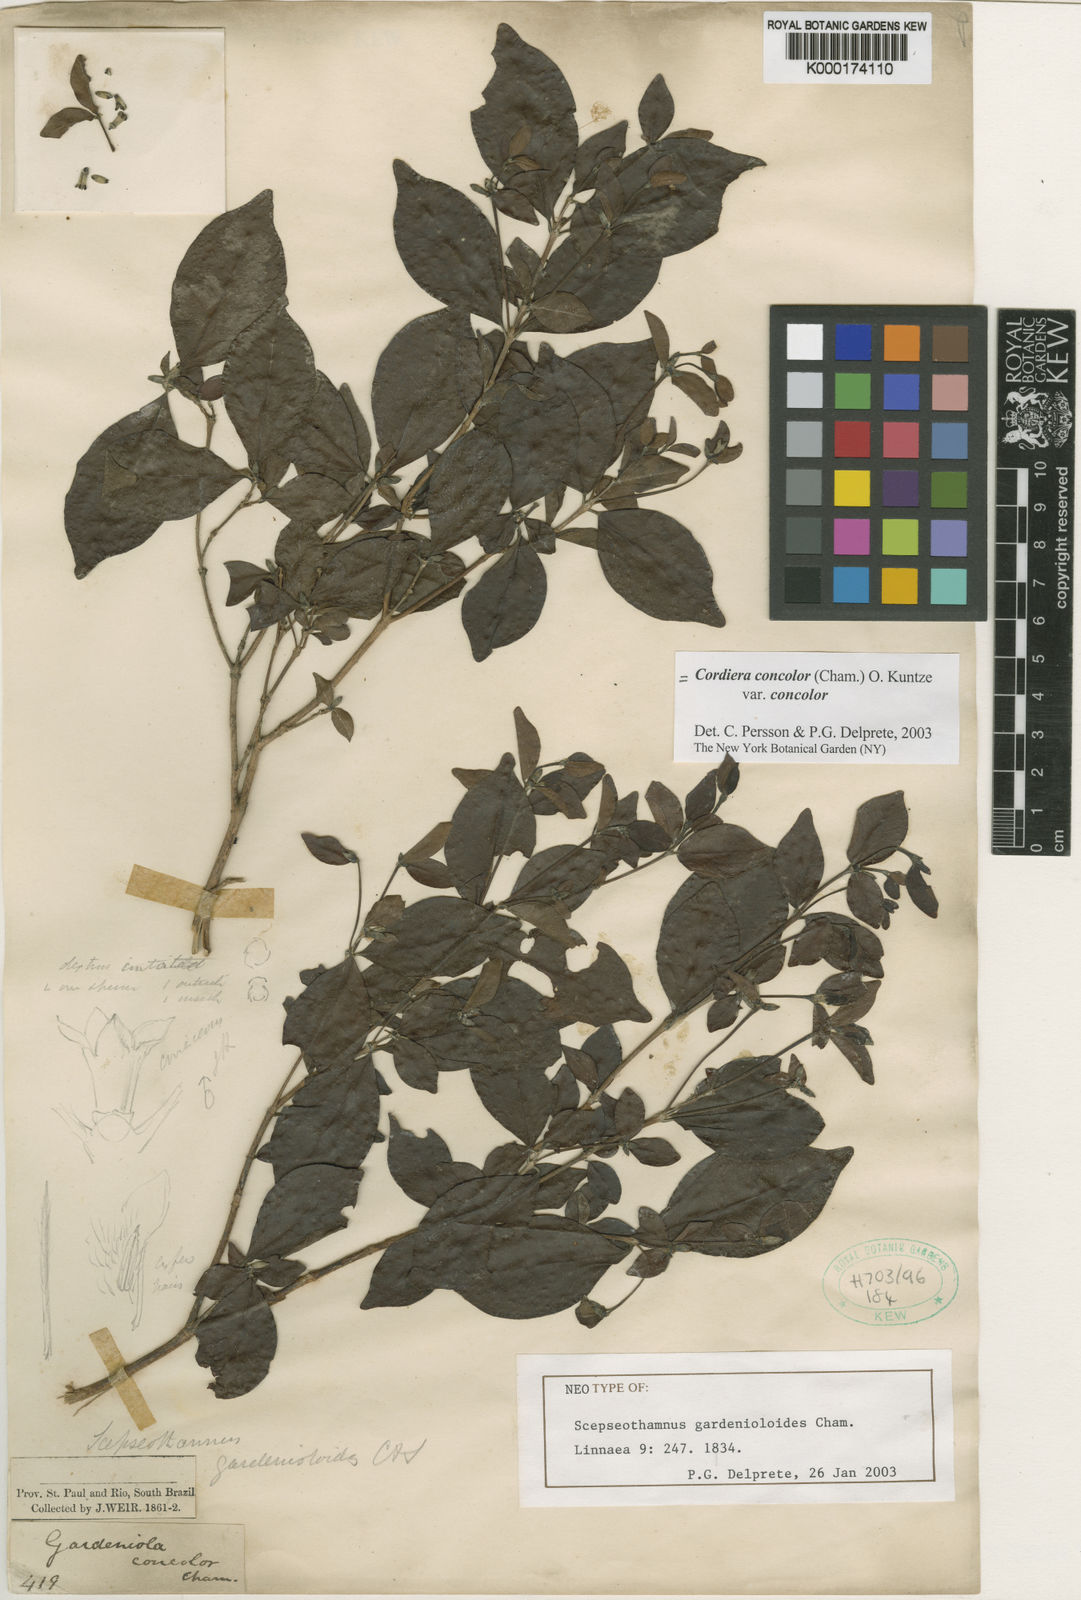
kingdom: Plantae
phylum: Tracheophyta
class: Magnoliopsida
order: Gentianales
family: Rubiaceae
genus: Cordiera
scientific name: Cordiera concolor
